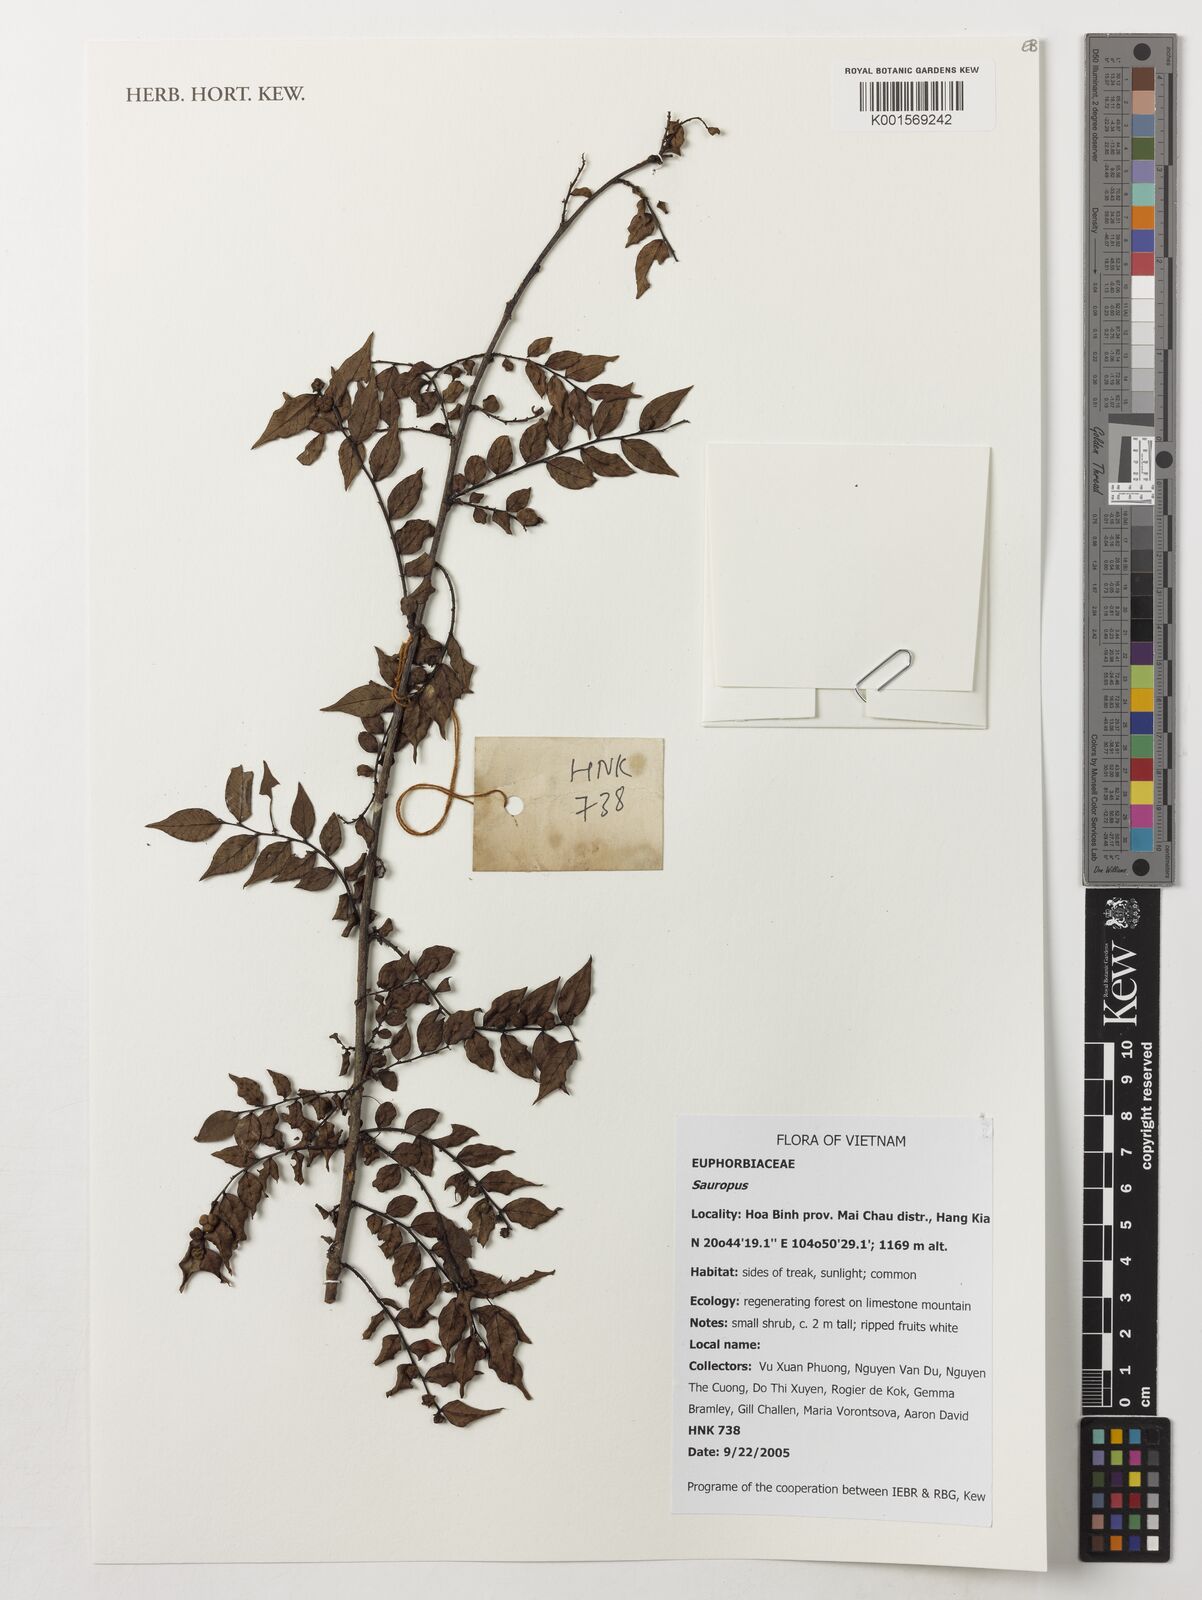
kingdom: Animalia
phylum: Chordata
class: Amphibia
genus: Sauropus
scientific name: Sauropus
